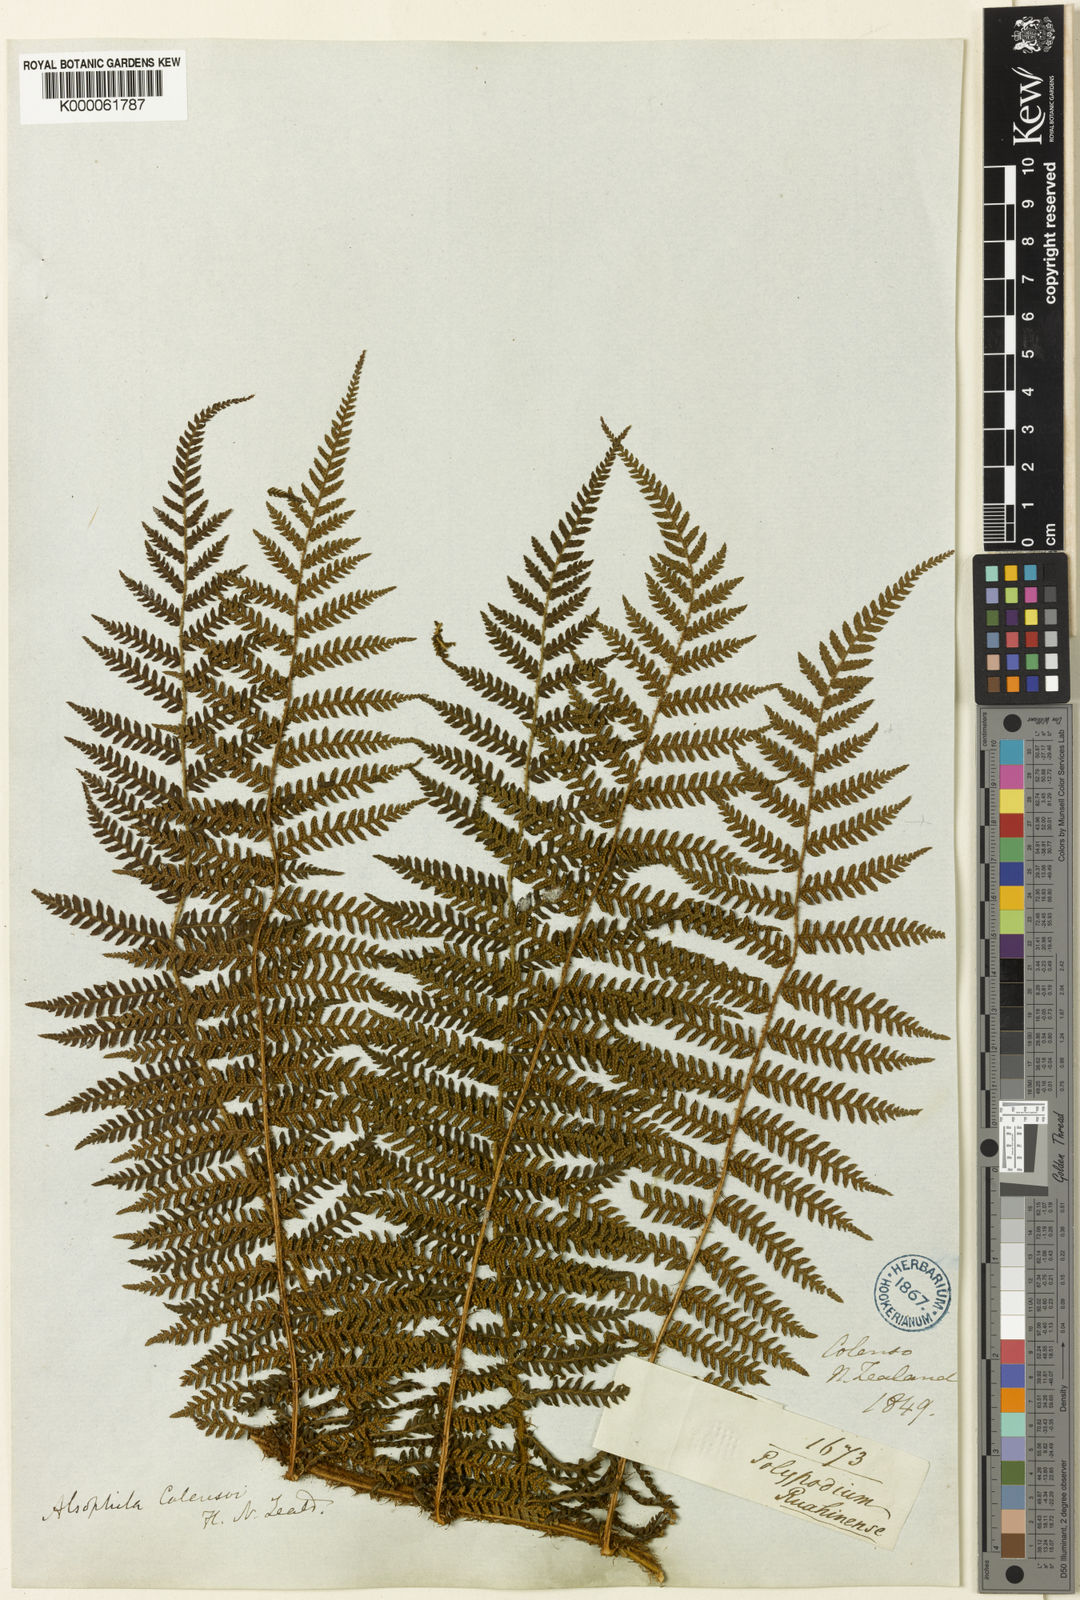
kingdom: Plantae
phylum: Tracheophyta
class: Polypodiopsida
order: Cyatheales
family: Cyatheaceae
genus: Alsophila
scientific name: Alsophila colensoi
